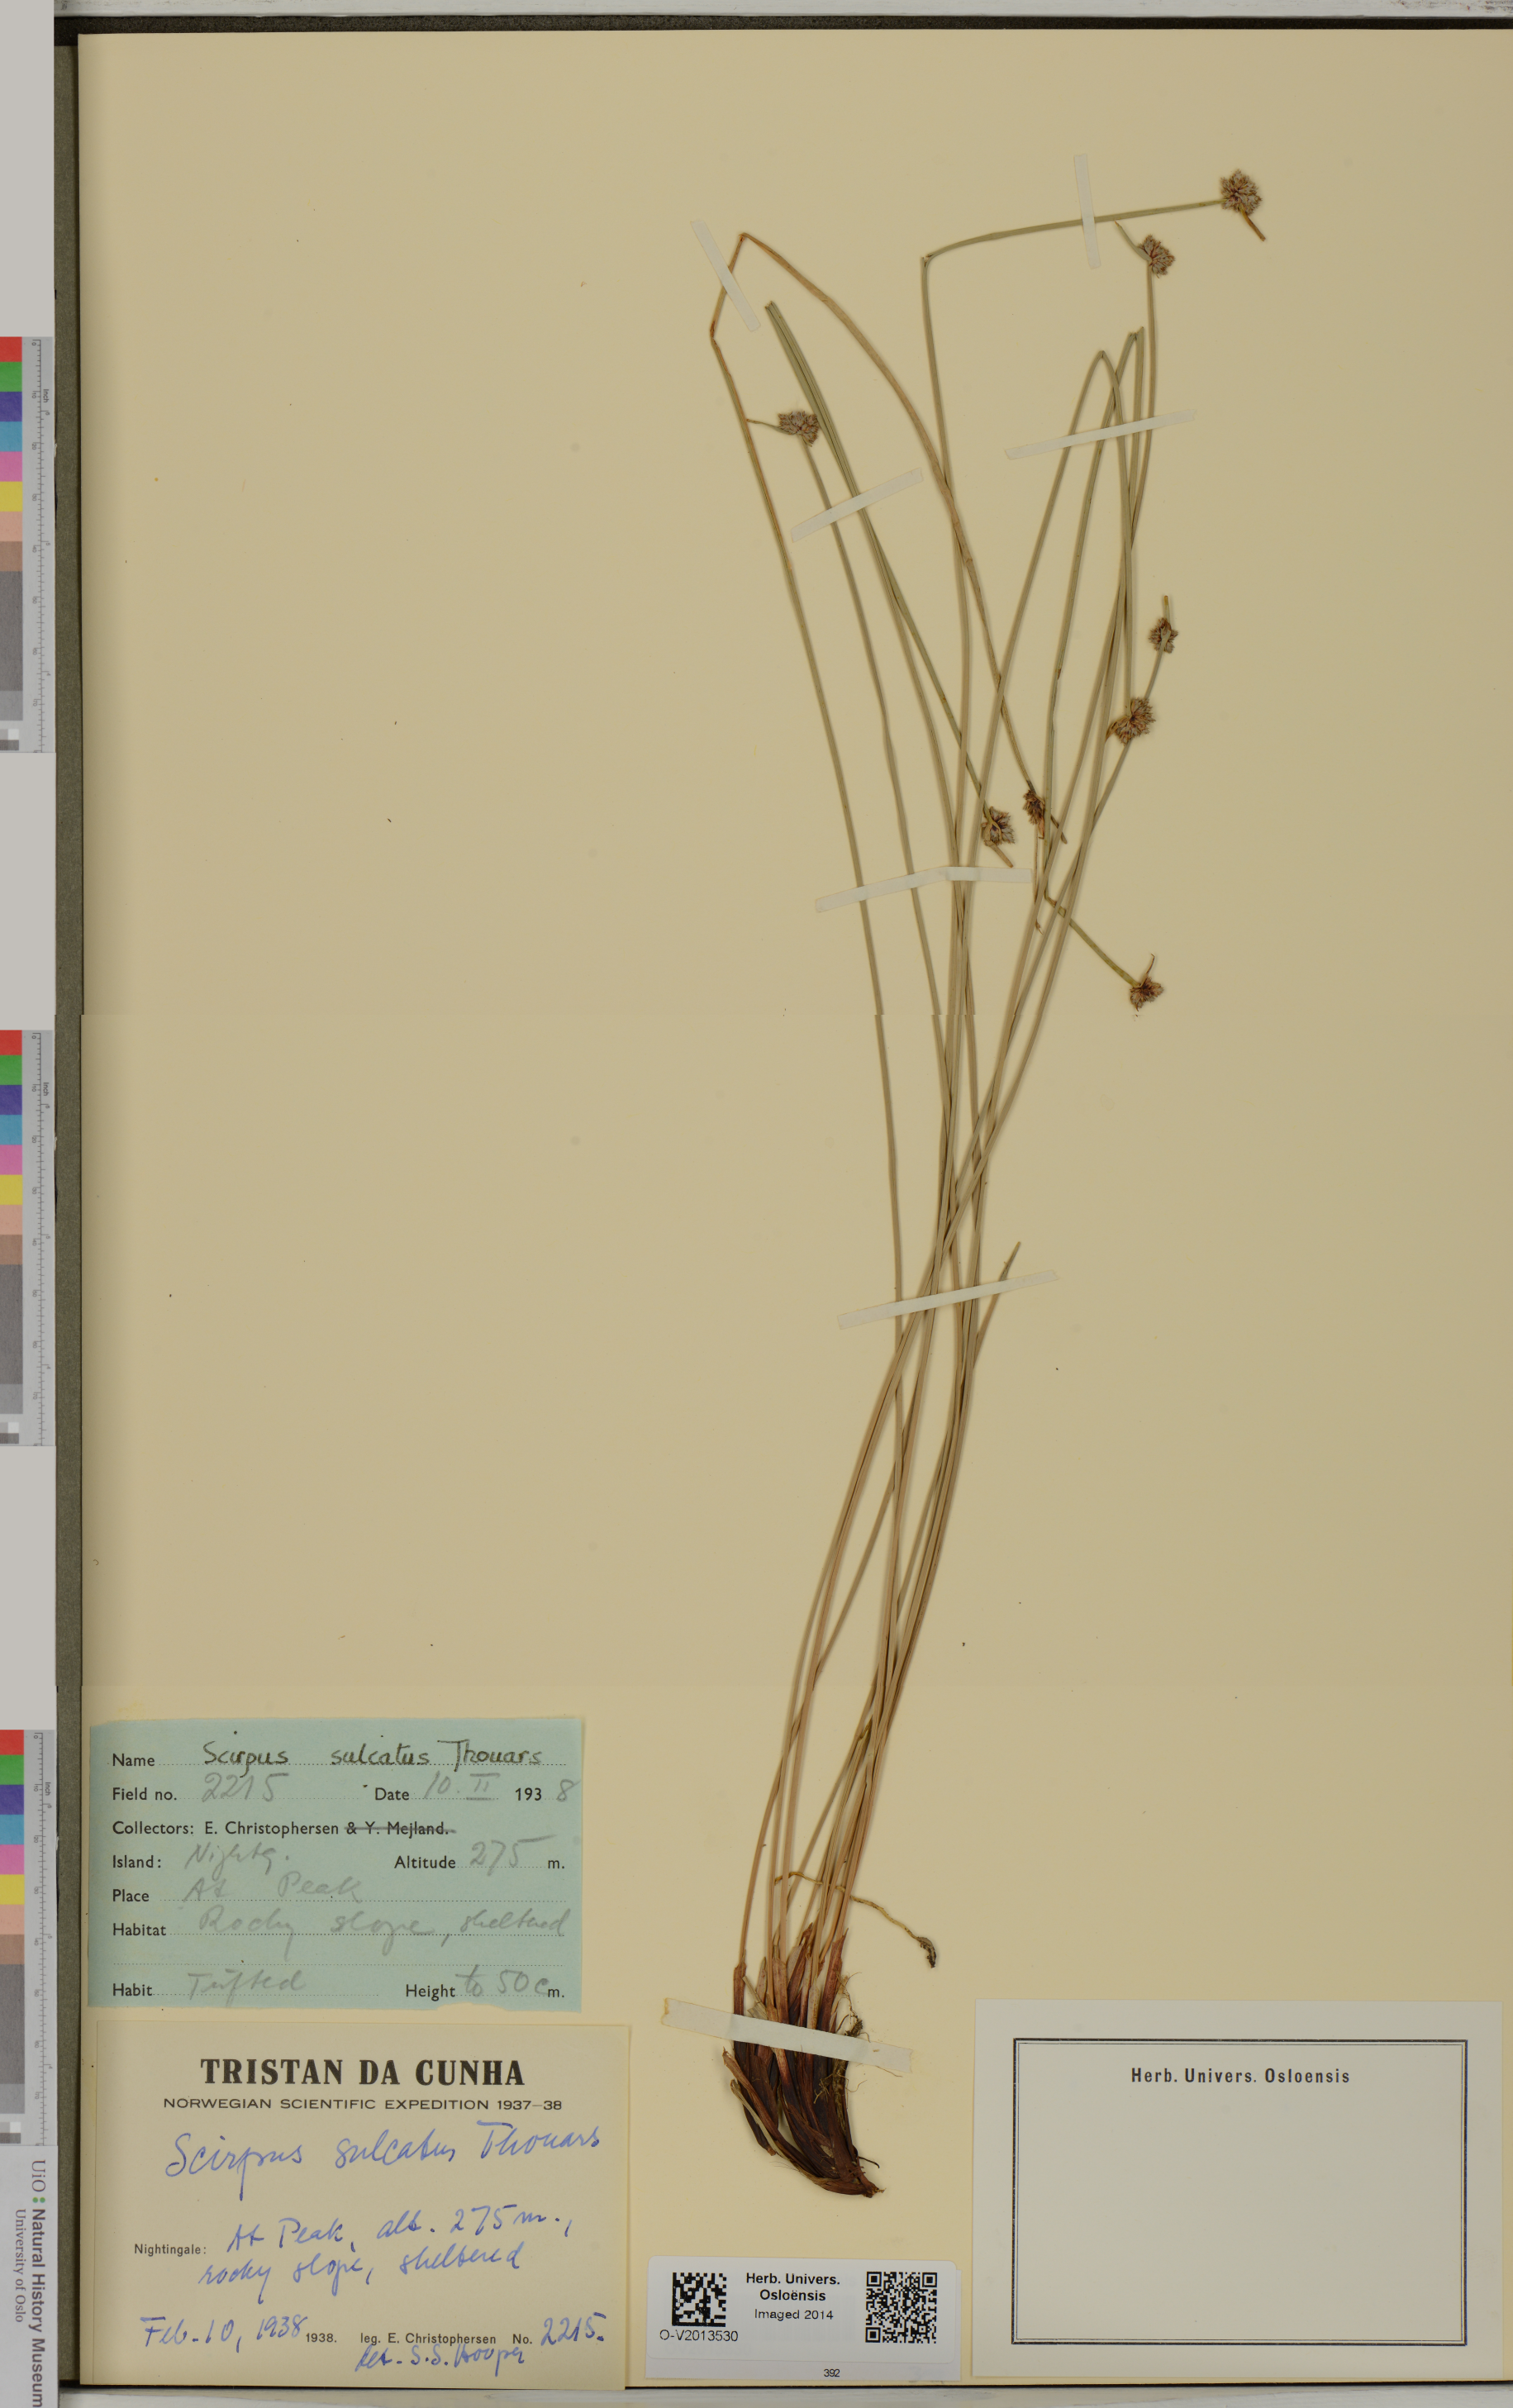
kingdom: Plantae
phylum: Tracheophyta
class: Liliopsida
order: Poales
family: Cyperaceae
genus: Isolepis
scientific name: Isolepis sulcata
